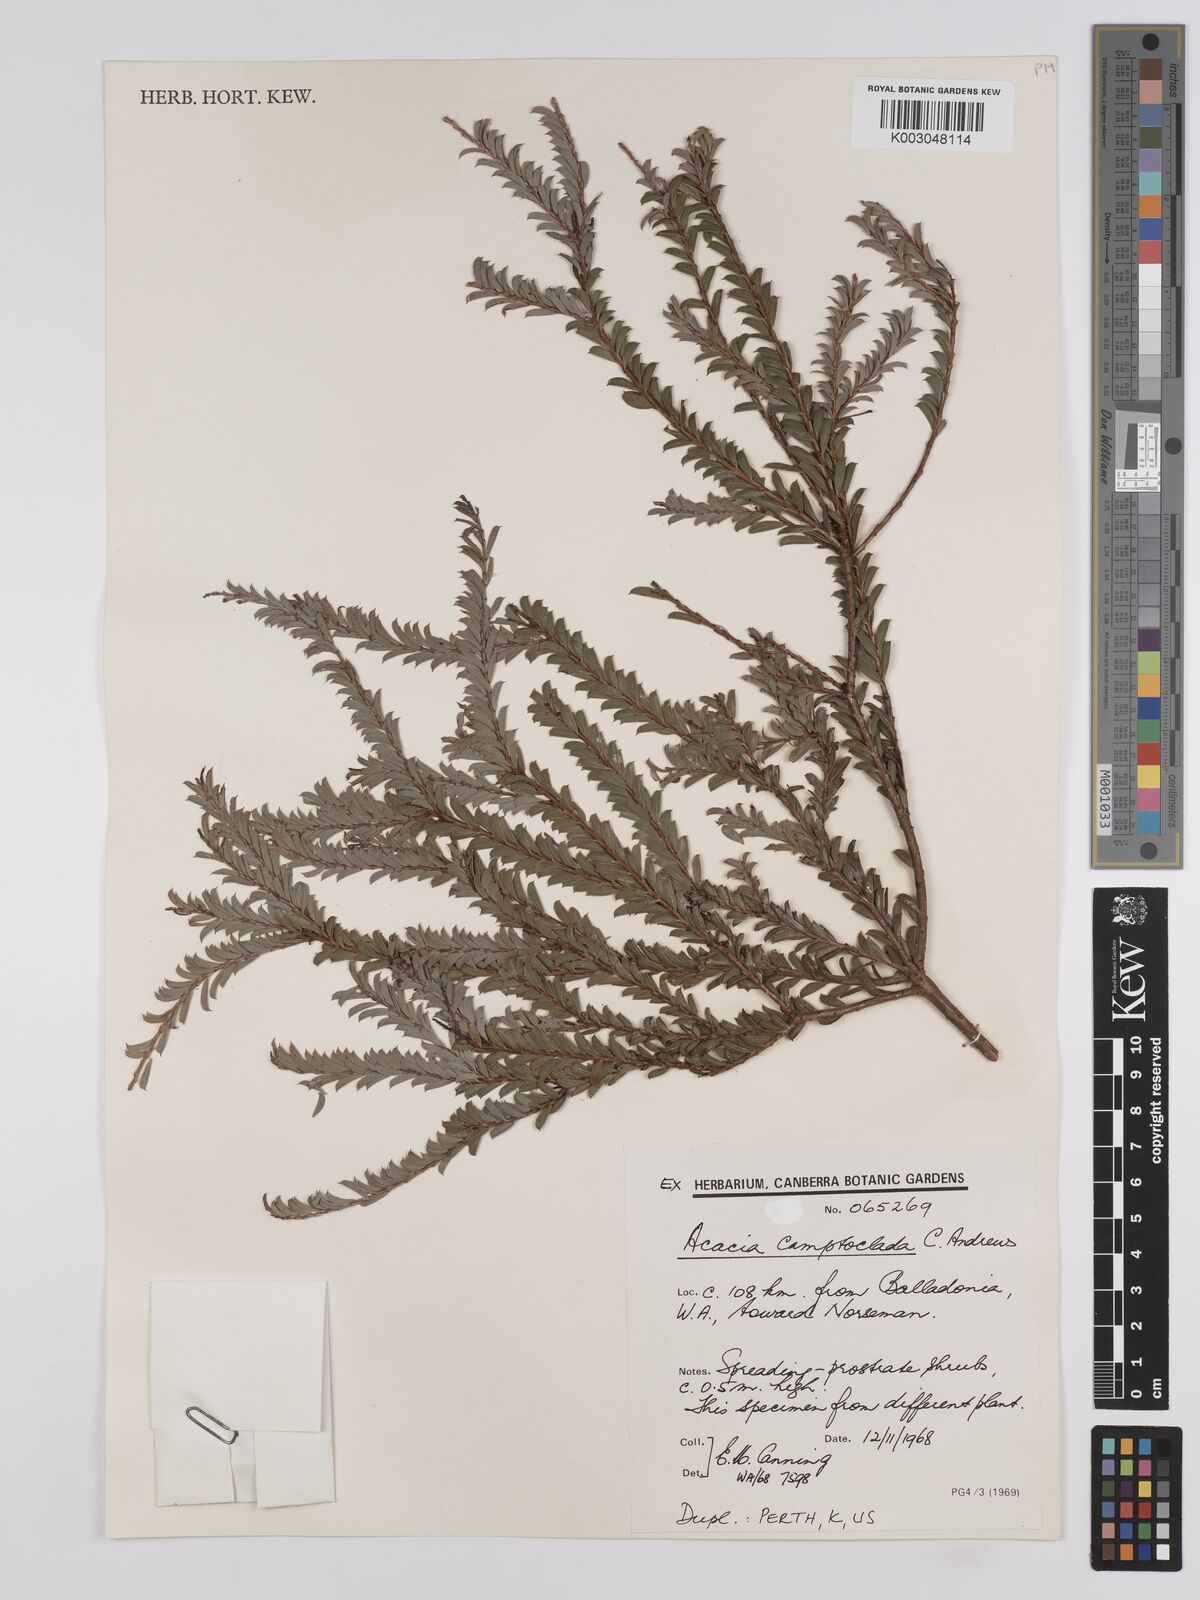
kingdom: Plantae
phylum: Tracheophyta
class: Magnoliopsida
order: Fabales
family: Fabaceae
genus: Acacia
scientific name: Acacia camptoclada
